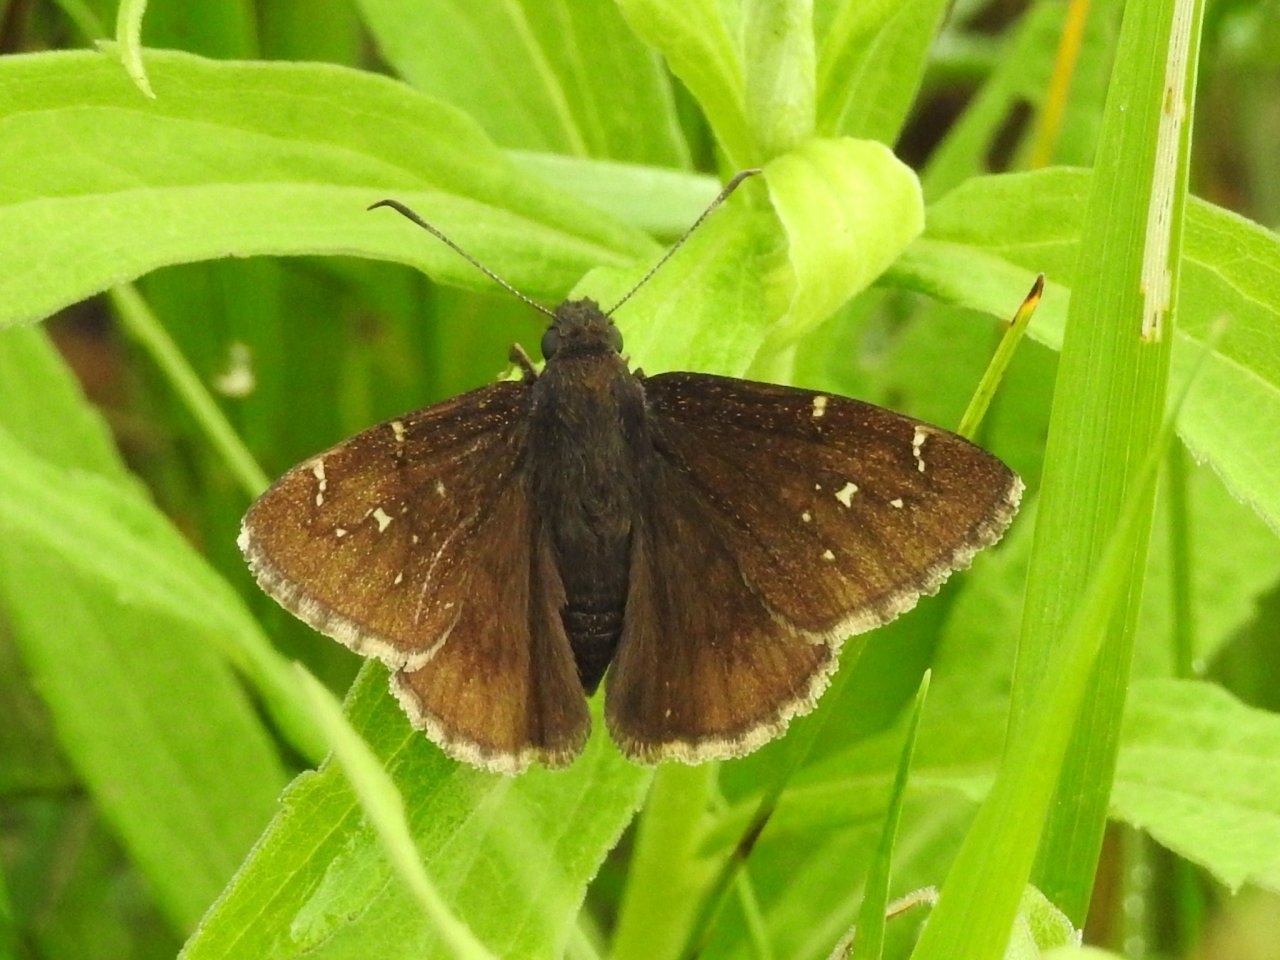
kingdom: Animalia
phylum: Arthropoda
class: Insecta
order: Lepidoptera
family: Hesperiidae
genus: Autochton
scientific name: Autochton
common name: Northern Cloudywing
